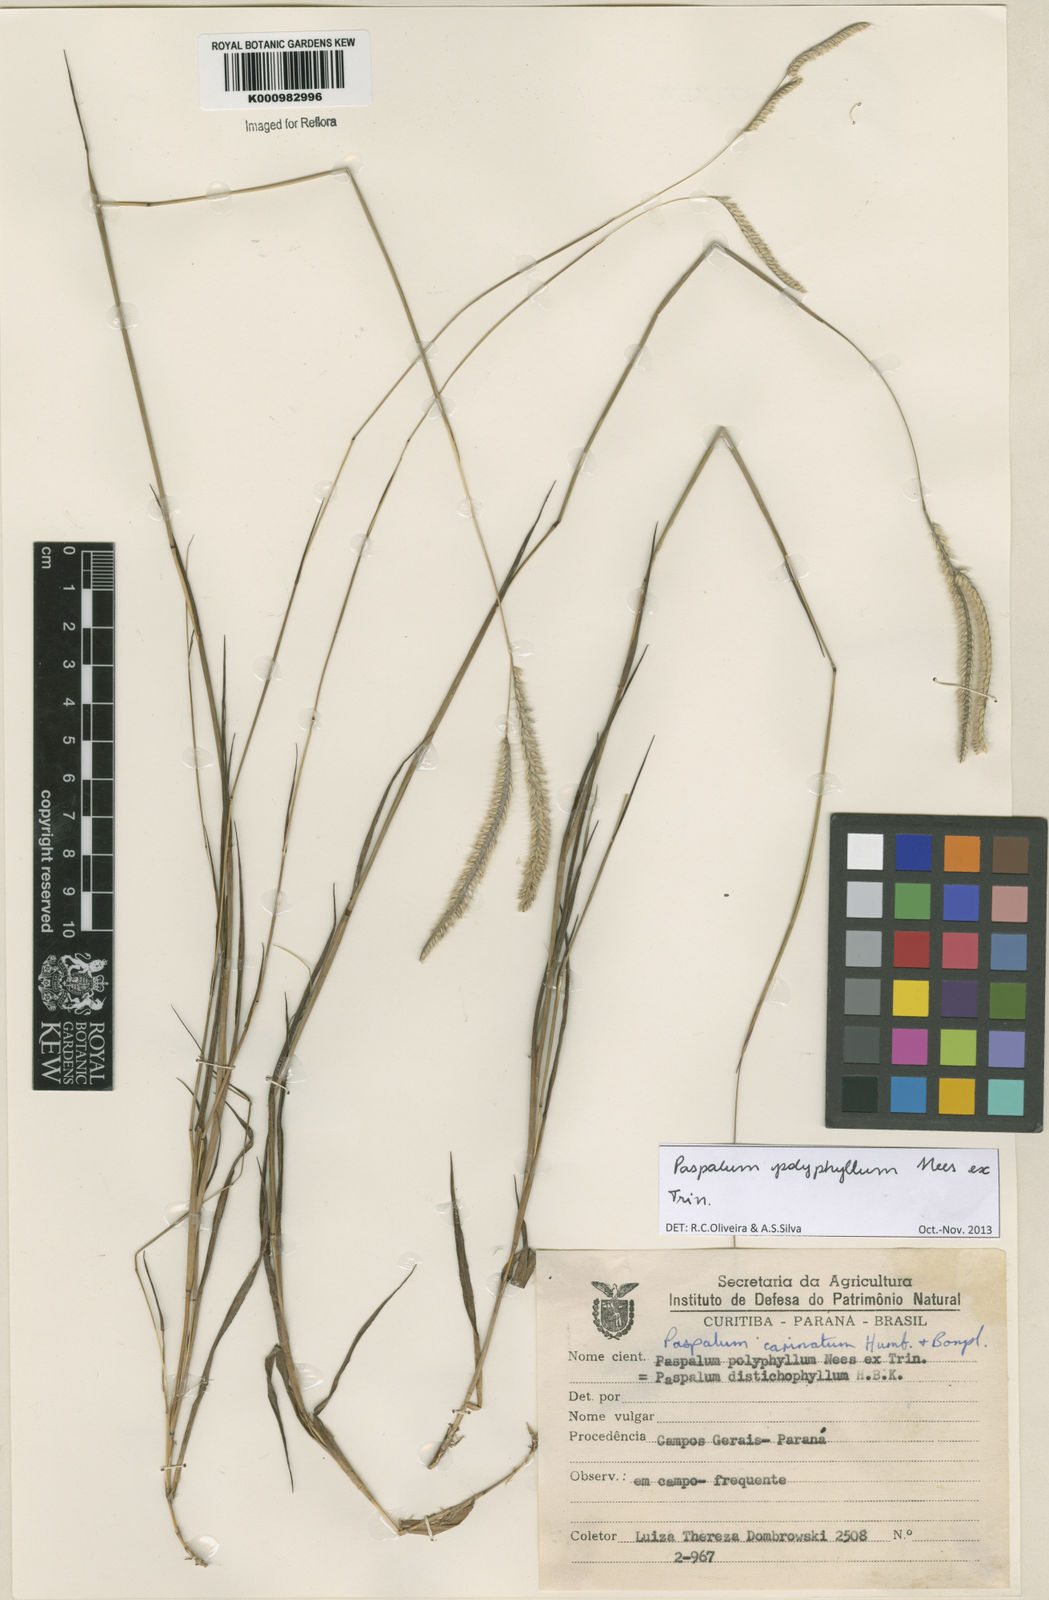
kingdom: Plantae
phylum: Tracheophyta
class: Liliopsida
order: Poales
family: Poaceae
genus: Paspalum
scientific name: Paspalum
